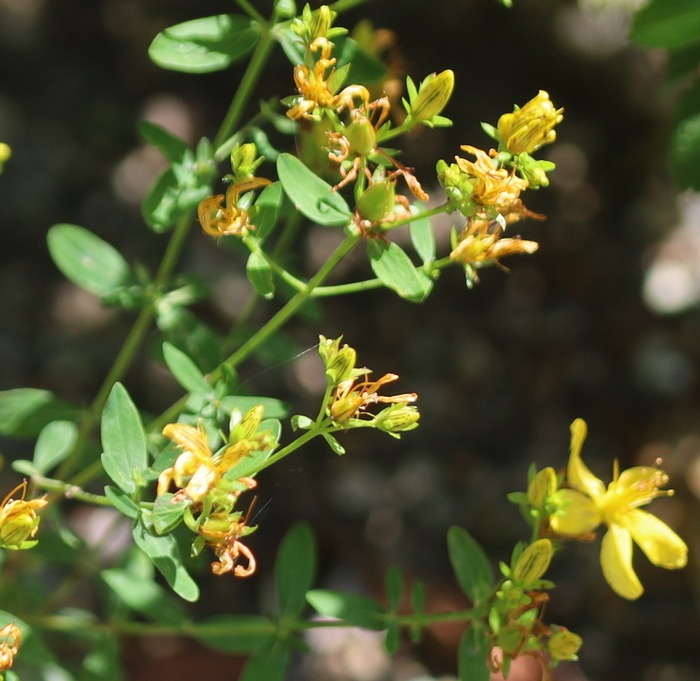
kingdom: Plantae
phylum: Tracheophyta
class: Magnoliopsida
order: Malpighiales
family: Hypericaceae
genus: Hypericum
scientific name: Hypericum perforatum
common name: Prikbladet perikon
